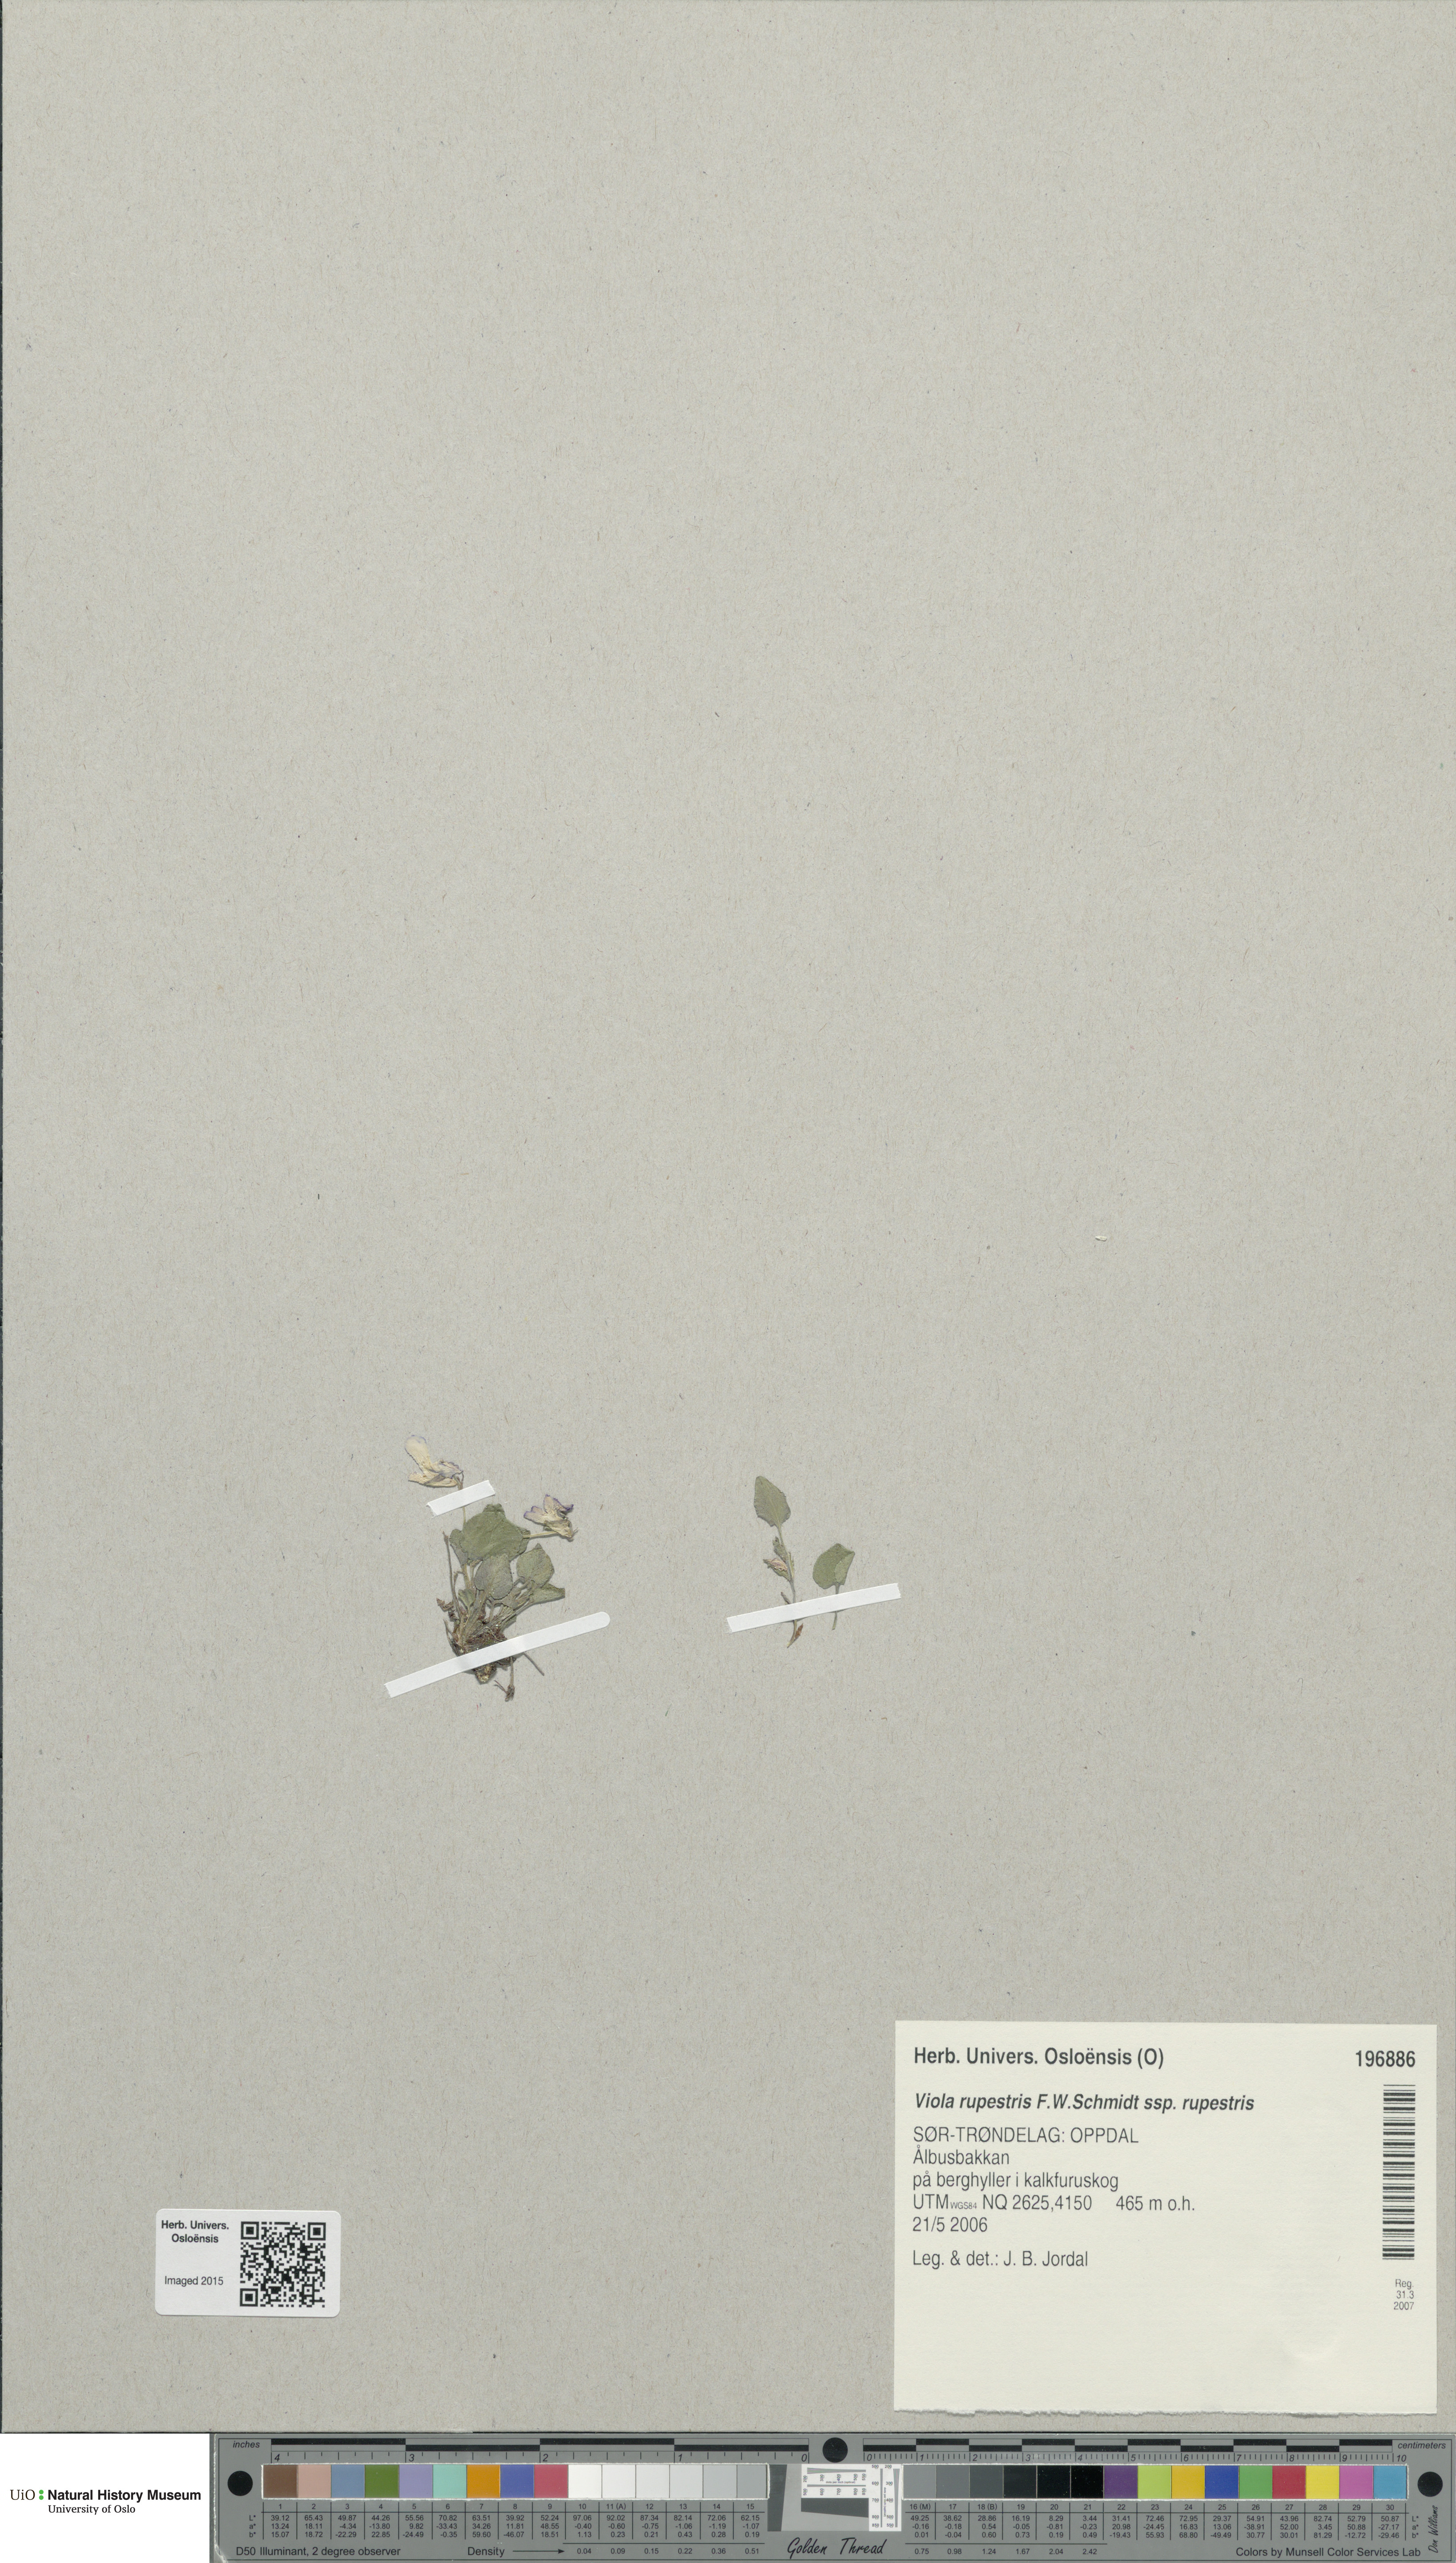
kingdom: Plantae
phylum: Tracheophyta
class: Magnoliopsida
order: Malpighiales
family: Violaceae
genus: Viola
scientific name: Viola rupestris
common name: Teesdale violet
